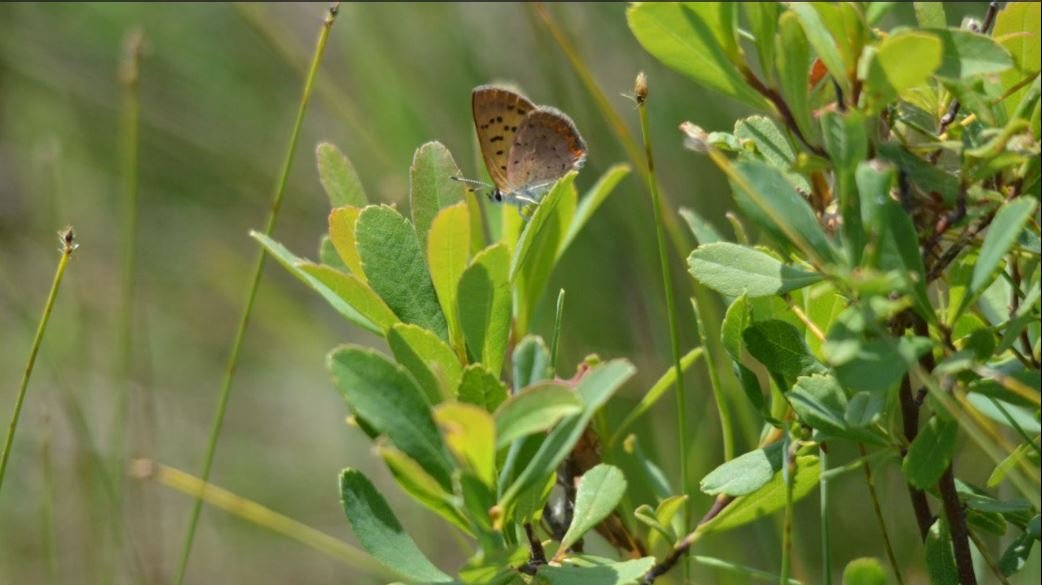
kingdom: Animalia
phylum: Arthropoda
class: Insecta
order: Lepidoptera
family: Lycaenidae
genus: Epidemia
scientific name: Epidemia dorcas
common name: Dorcas Copper
